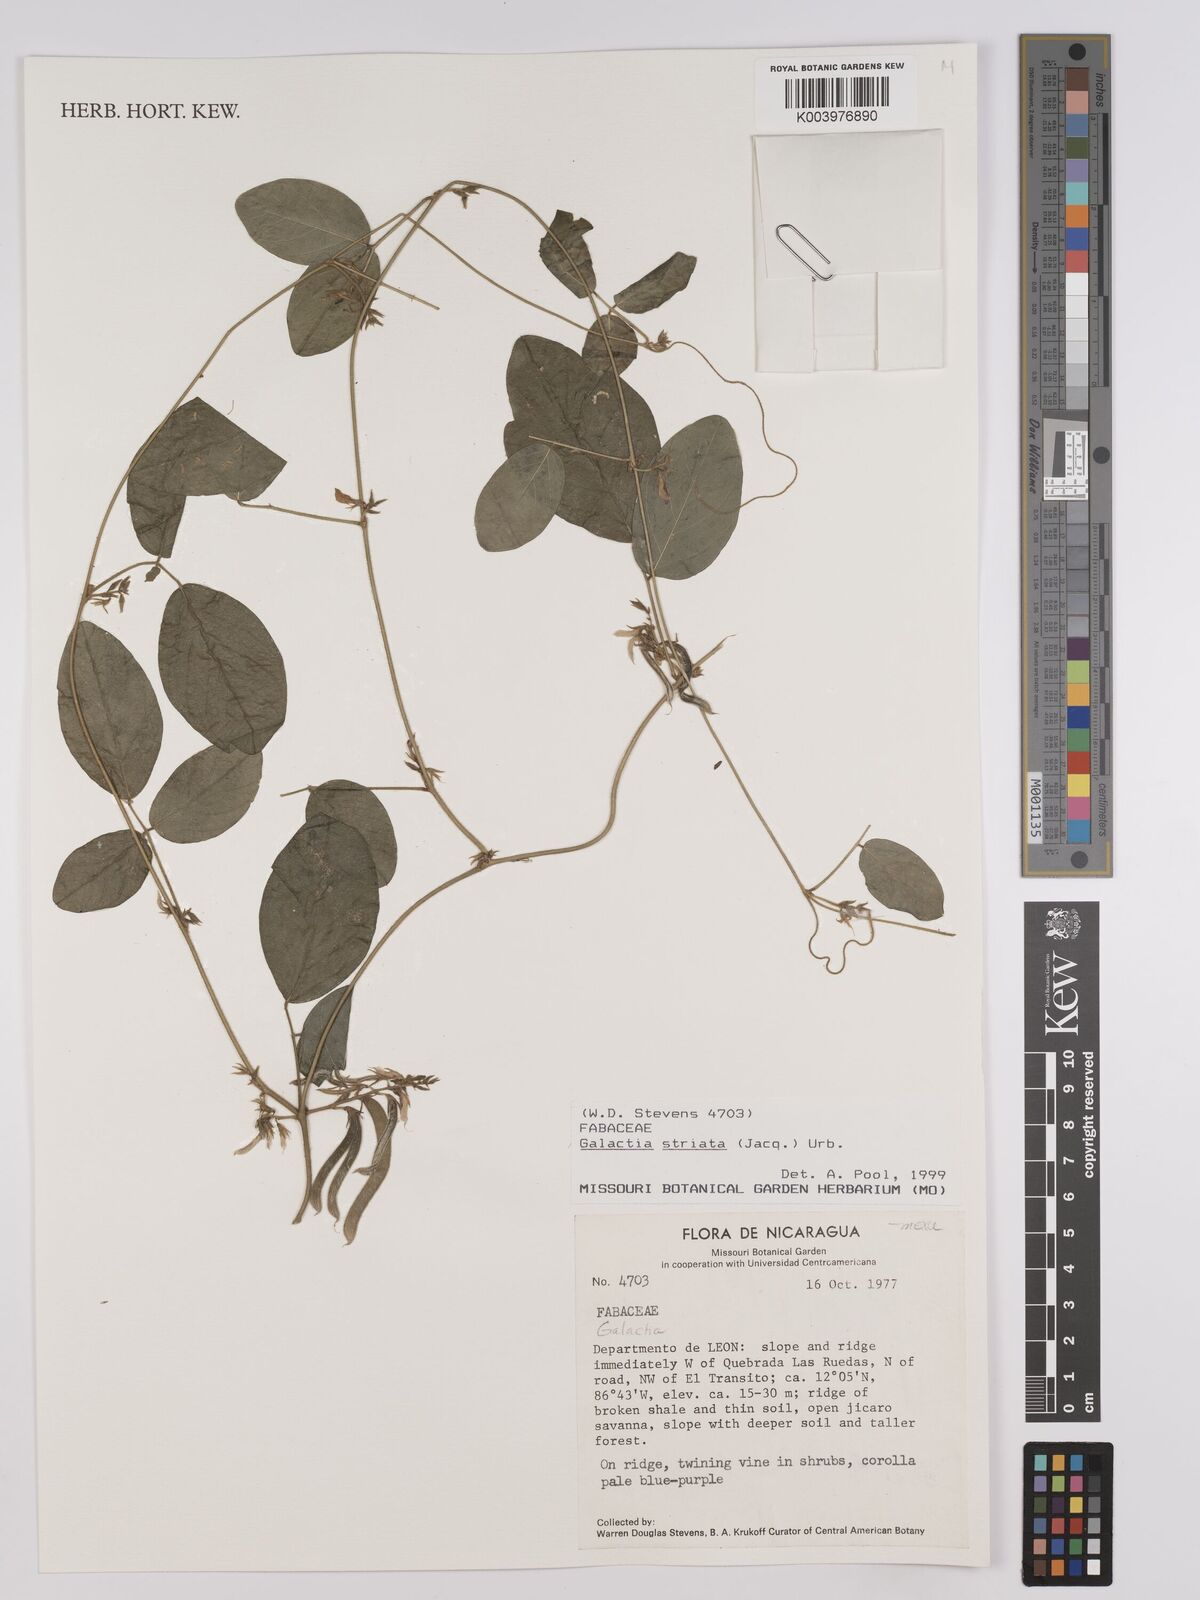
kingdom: Plantae
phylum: Tracheophyta
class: Magnoliopsida
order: Fabales
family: Fabaceae
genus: Galactia
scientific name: Galactia striata
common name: Florida hammock milkpea
